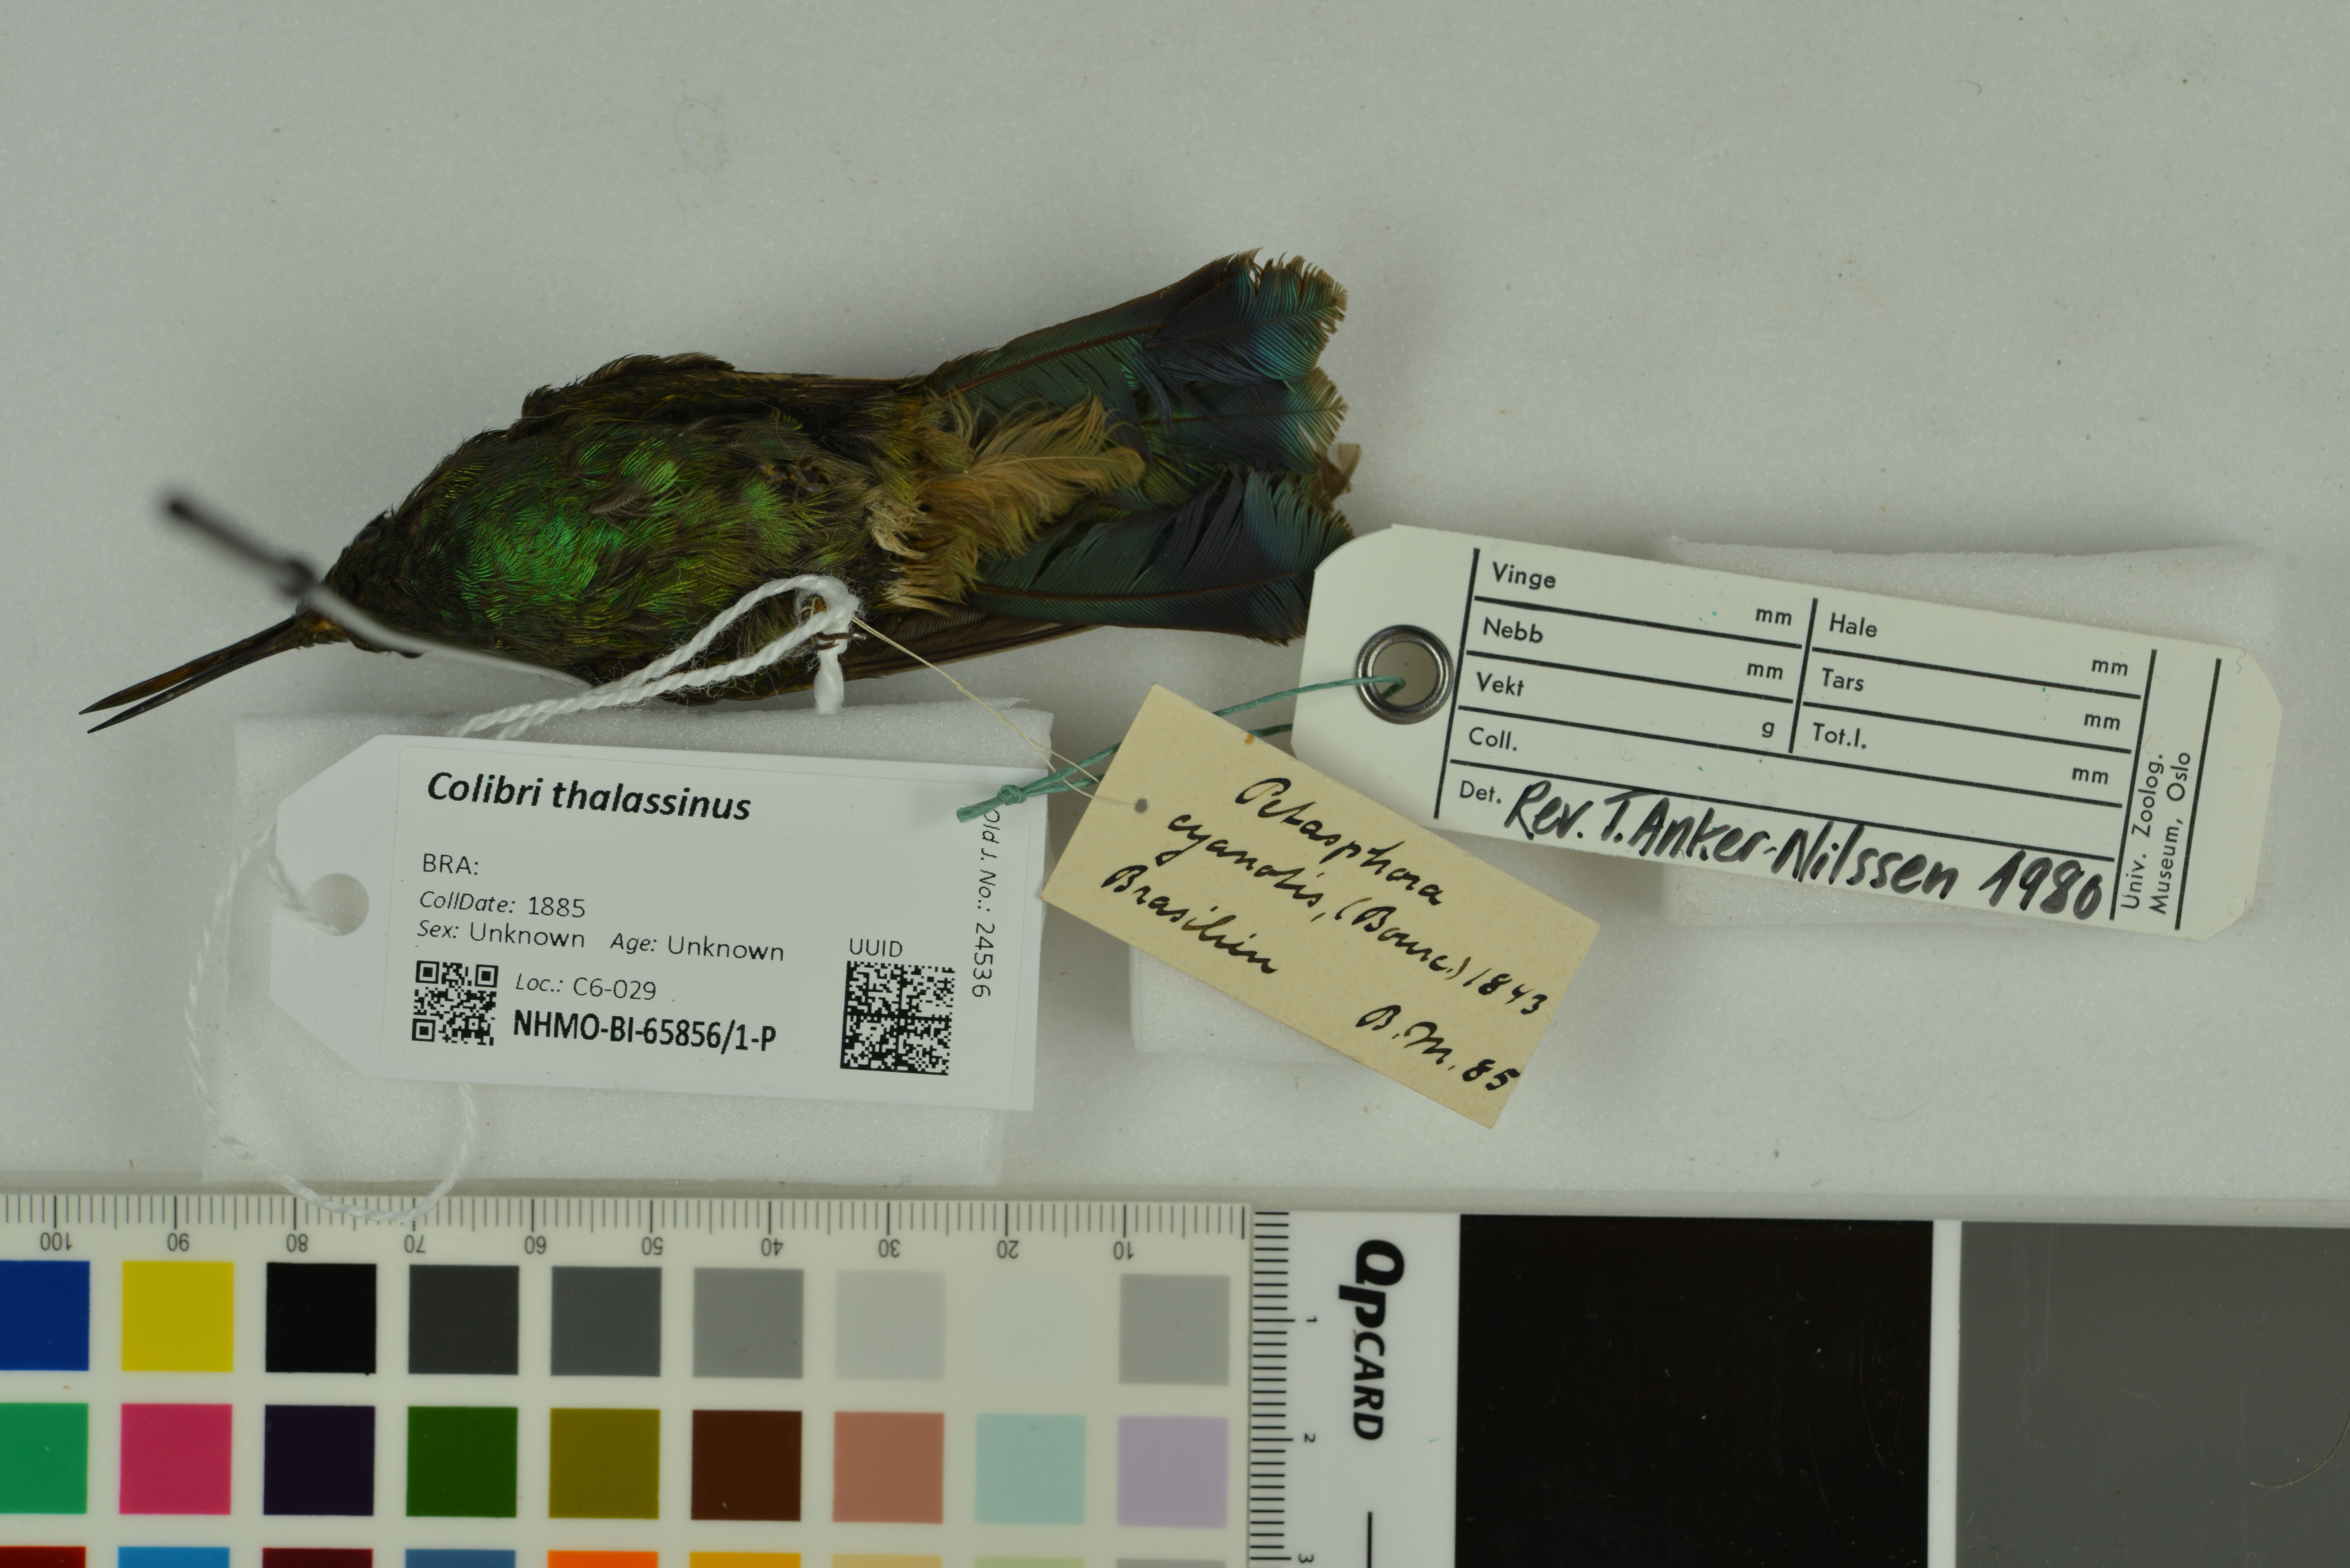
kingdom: Animalia
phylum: Chordata
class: Aves
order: Apodiformes
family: Trochilidae
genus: Colibri
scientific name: Colibri thalassinus
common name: Green violetear
